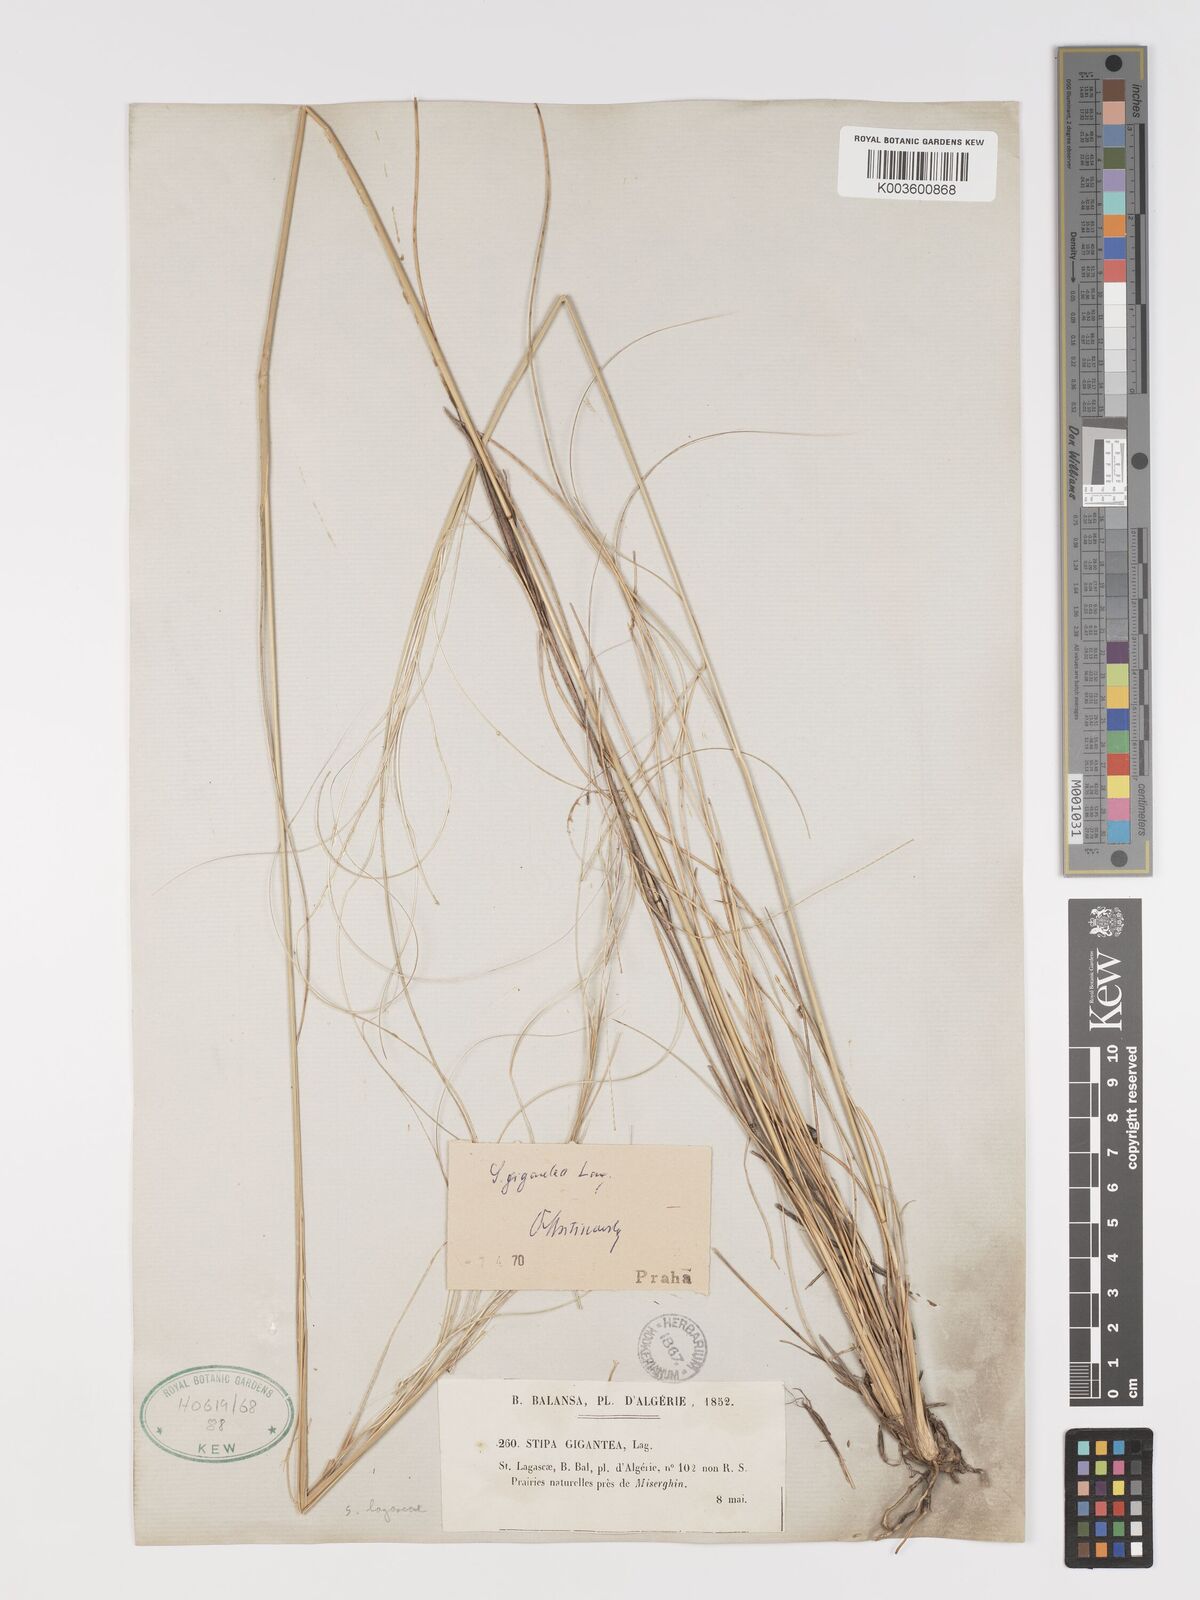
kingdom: Plantae
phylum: Tracheophyta
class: Liliopsida
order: Poales
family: Poaceae
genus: Stipa
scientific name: Stipa lagascae
